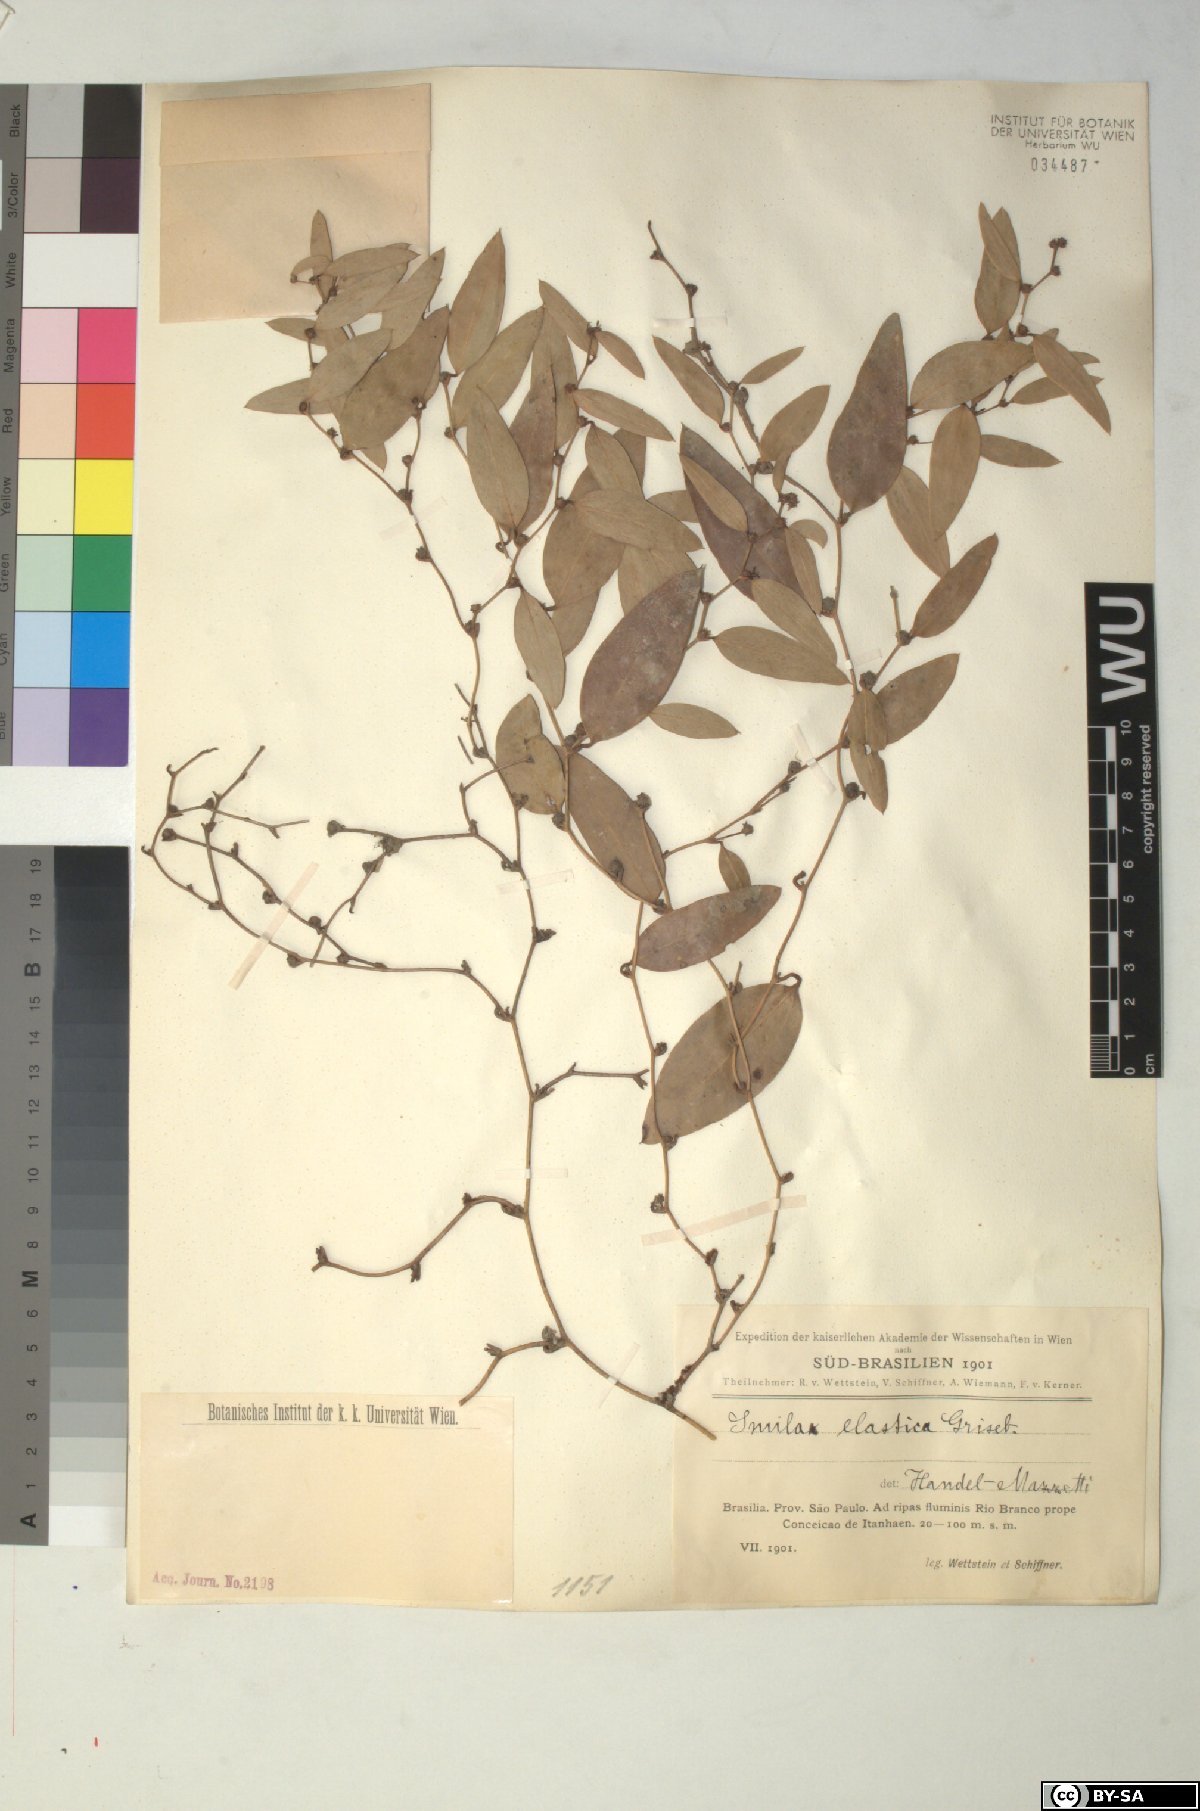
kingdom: Plantae
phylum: Tracheophyta
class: Liliopsida
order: Liliales
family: Smilacaceae
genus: Smilax
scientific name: Smilax elastica
